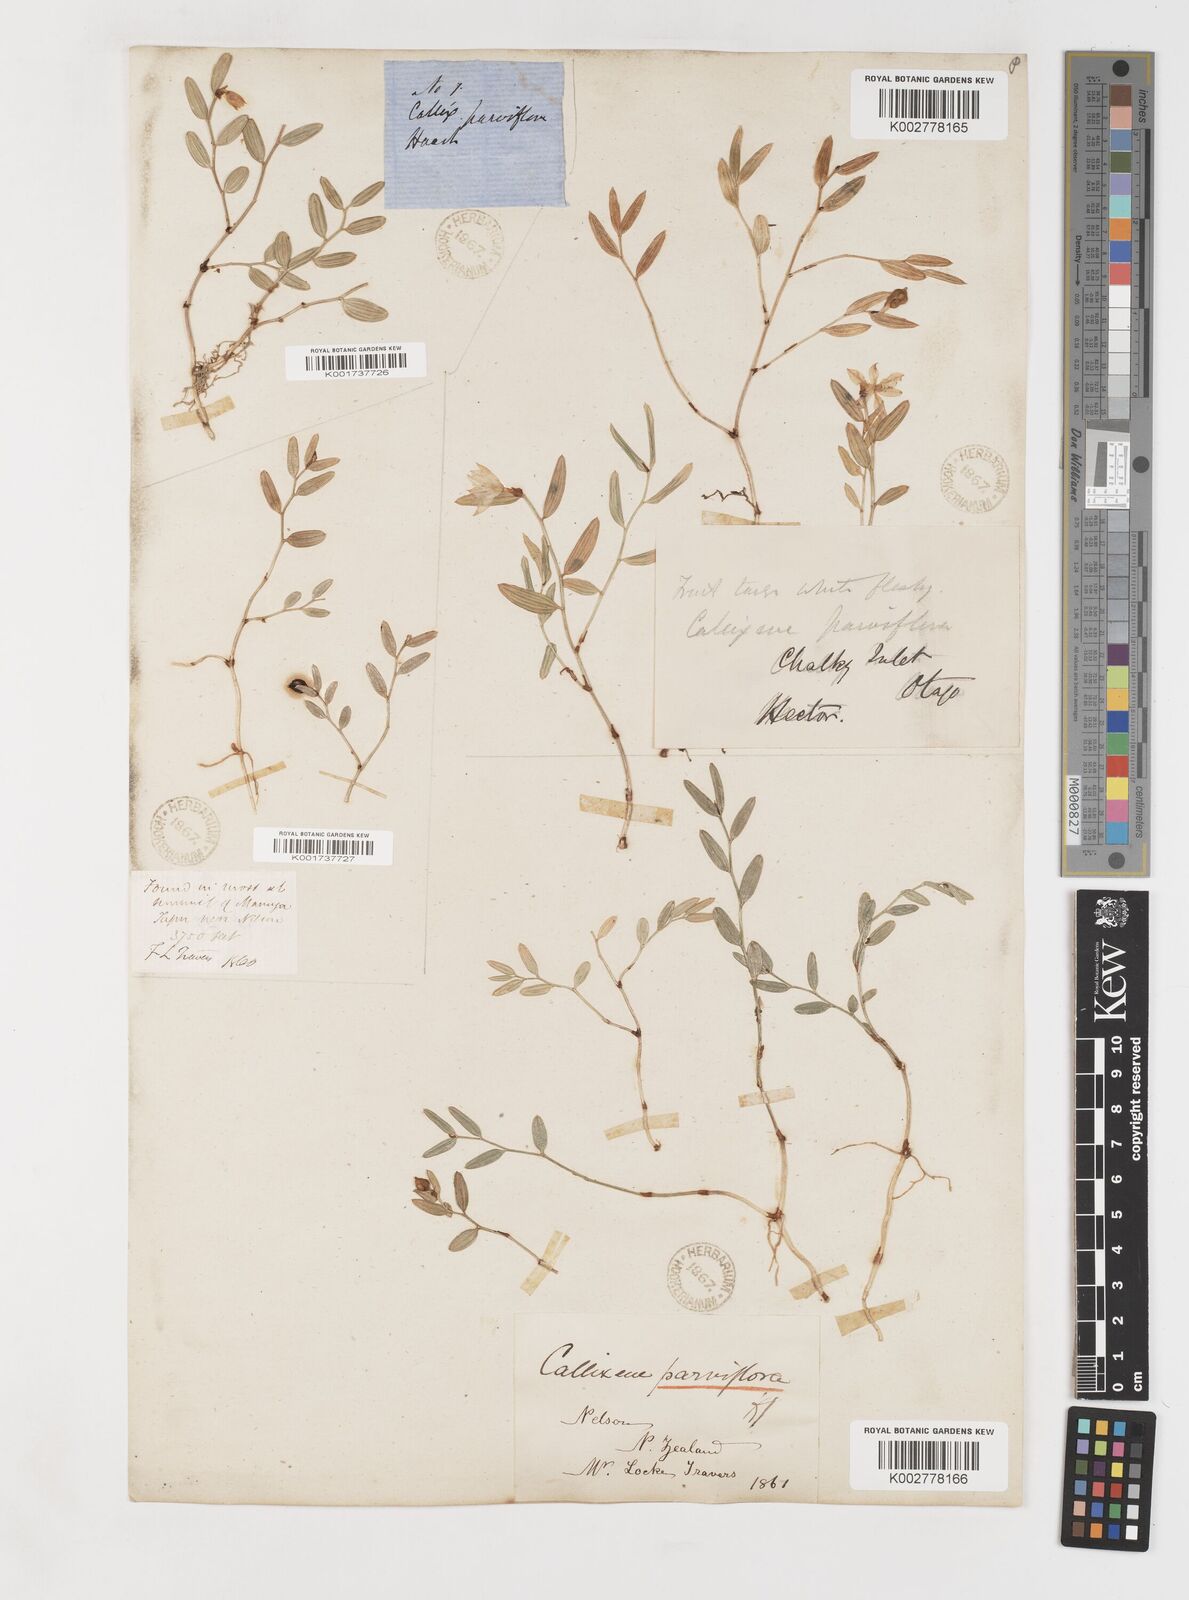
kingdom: Plantae
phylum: Tracheophyta
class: Liliopsida
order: Liliales
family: Alstroemeriaceae
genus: Luzuriaga
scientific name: Luzuriaga parviflora
